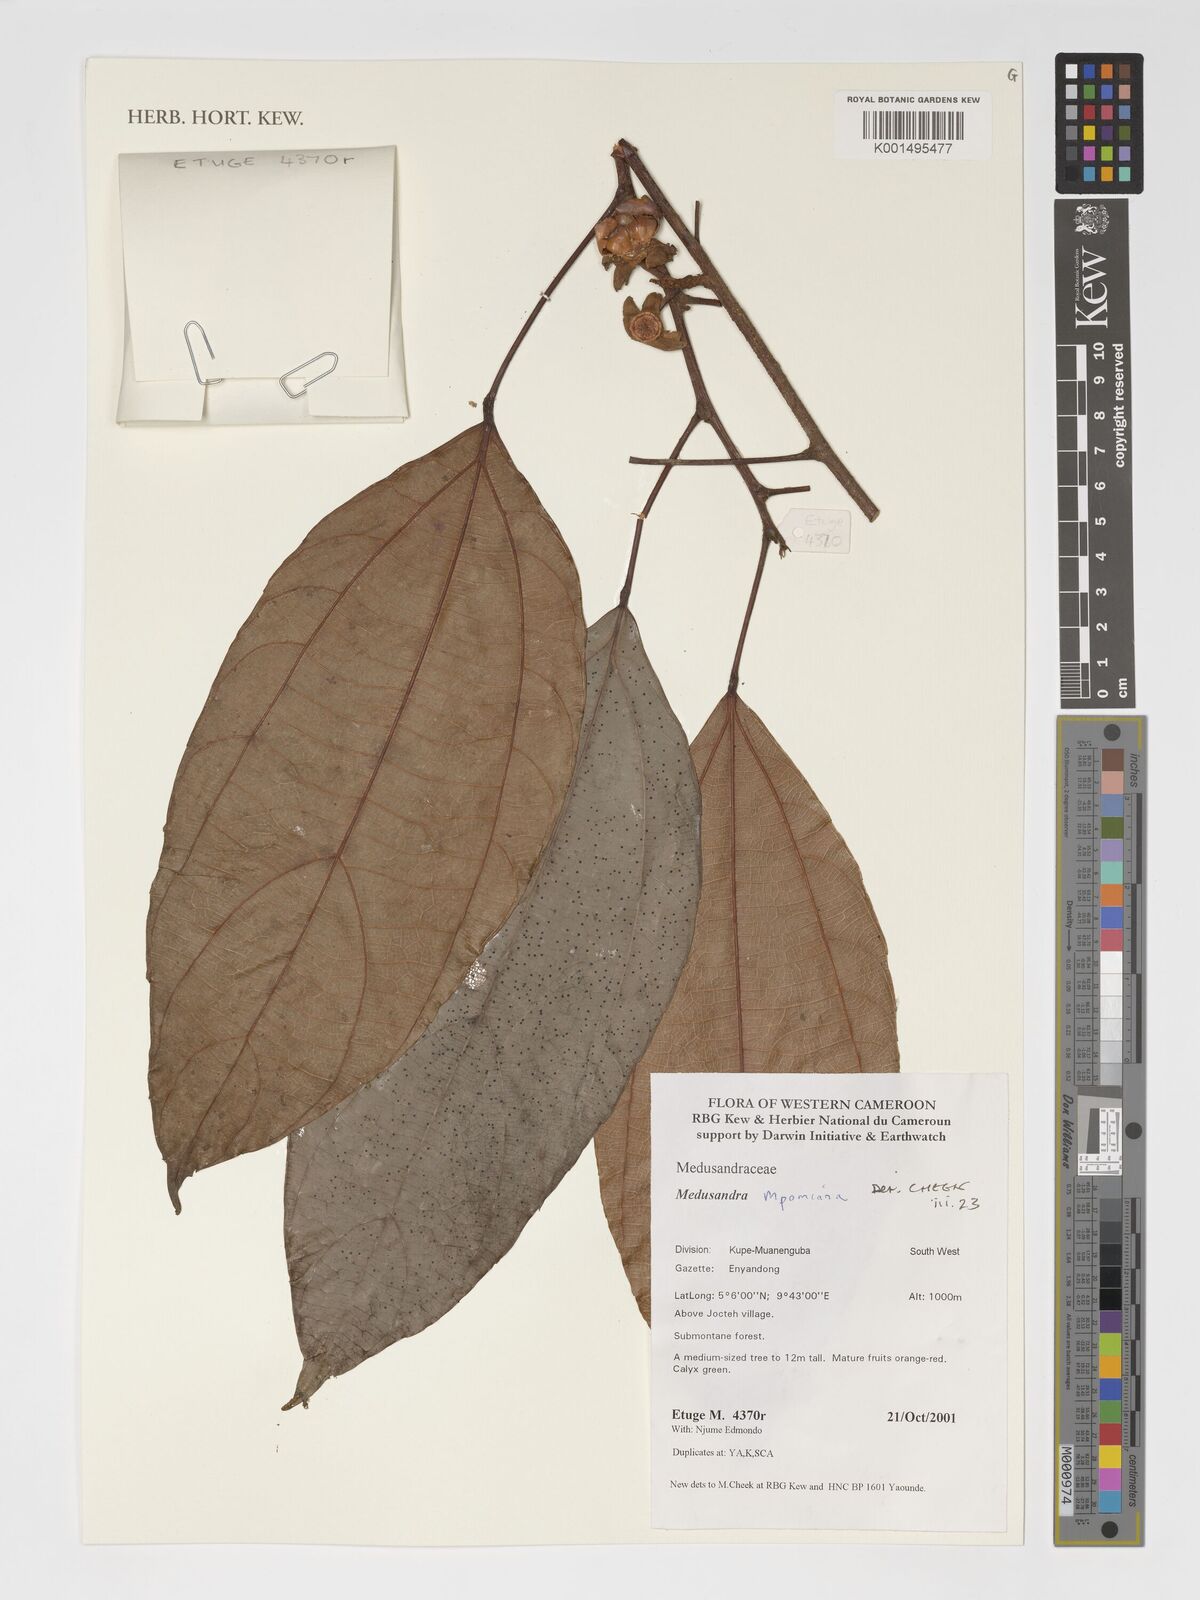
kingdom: Plantae
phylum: Tracheophyta
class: Magnoliopsida
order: Saxifragales
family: Peridiscaceae
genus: Medusandra
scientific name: Medusandra mpomiana
